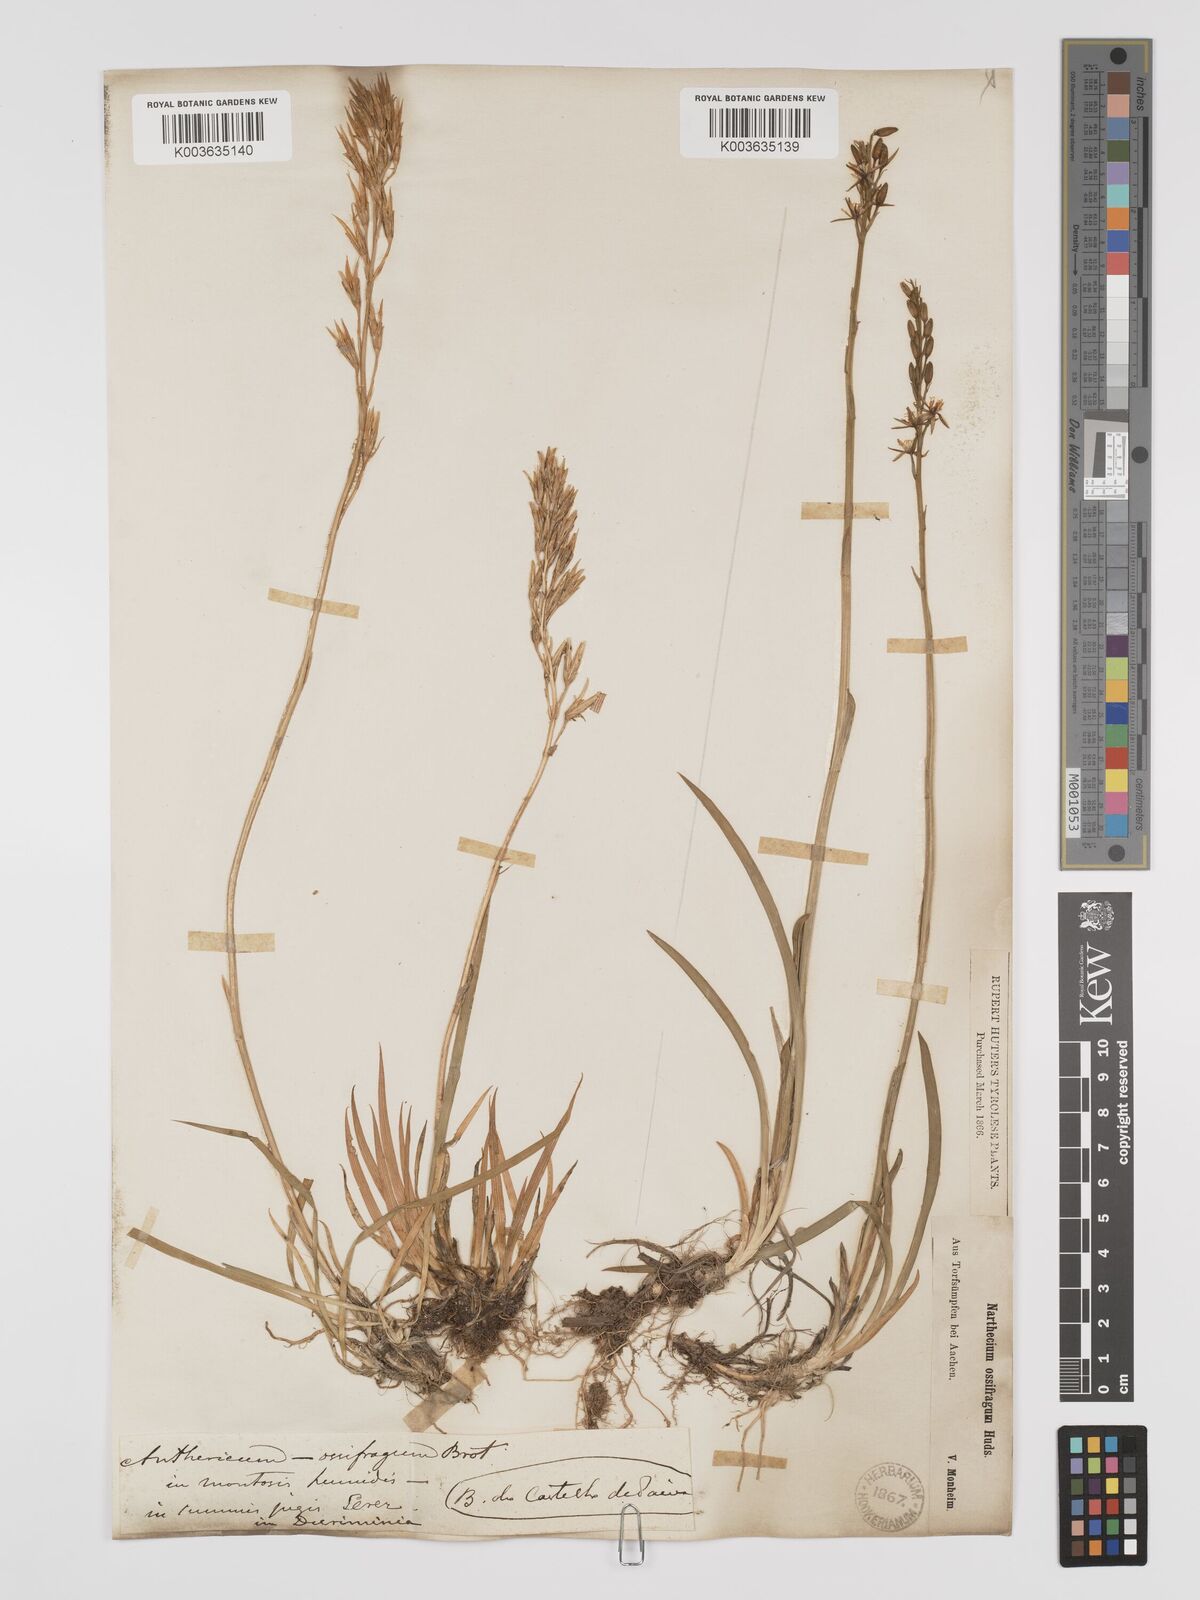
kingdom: Plantae
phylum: Tracheophyta
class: Liliopsida
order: Dioscoreales
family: Nartheciaceae
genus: Narthecium
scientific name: Narthecium ossifragum
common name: Bog asphodel
